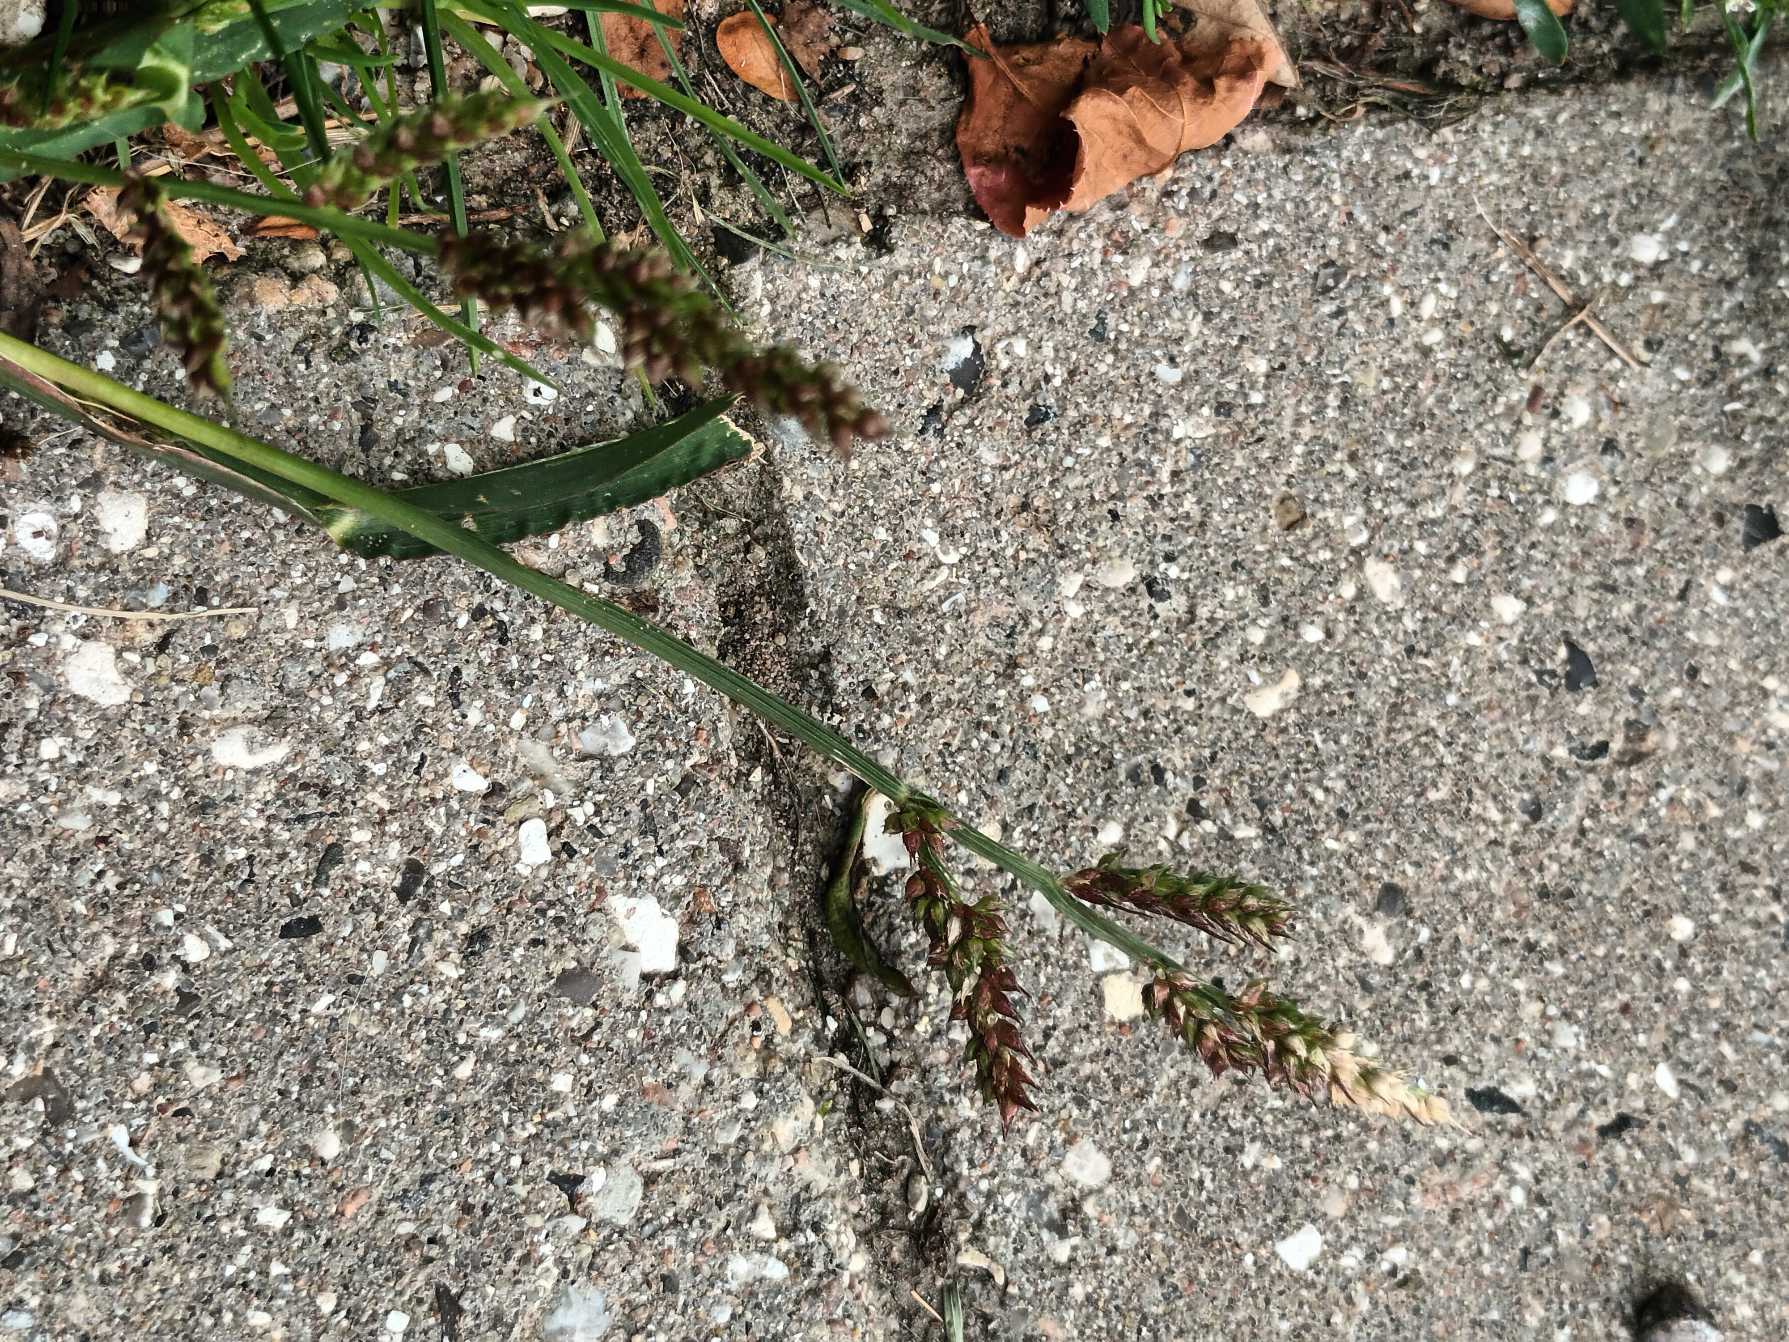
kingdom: Plantae
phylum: Tracheophyta
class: Liliopsida
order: Poales
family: Poaceae
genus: Echinochloa
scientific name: Echinochloa crus-galli
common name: Almindelig hanespore
